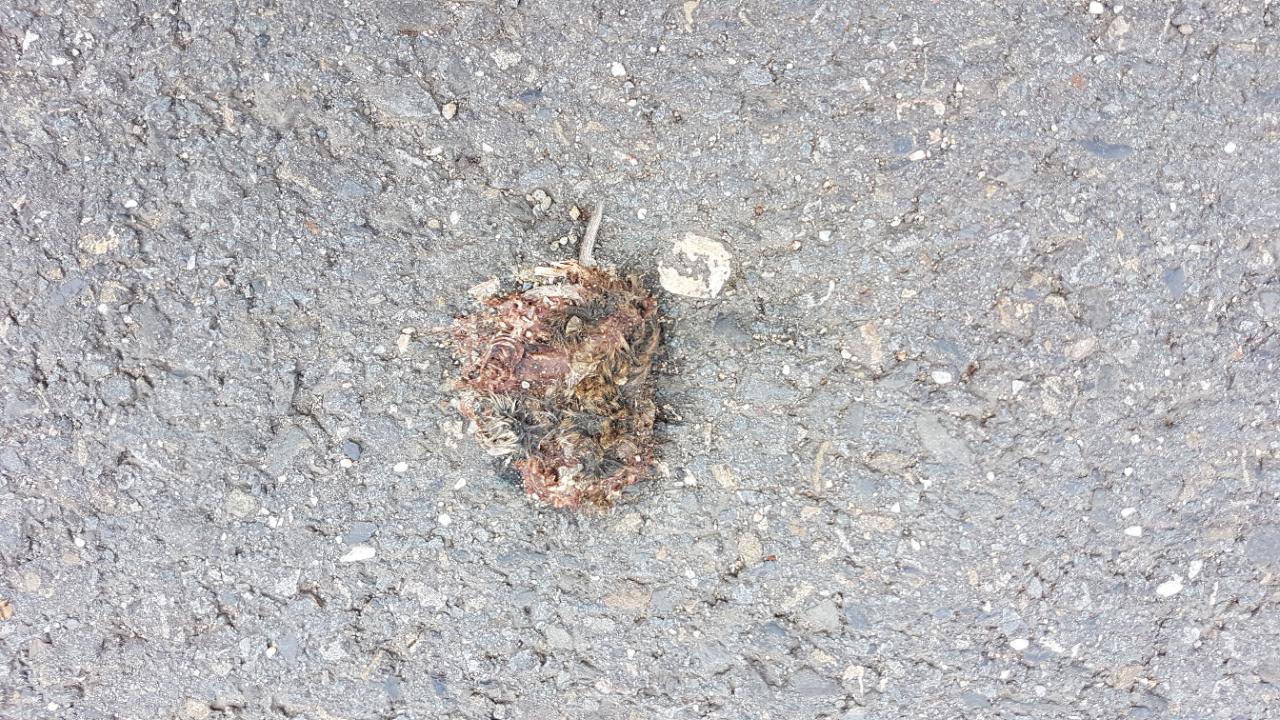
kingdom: Animalia
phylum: Chordata
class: Mammalia
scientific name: Mammalia
